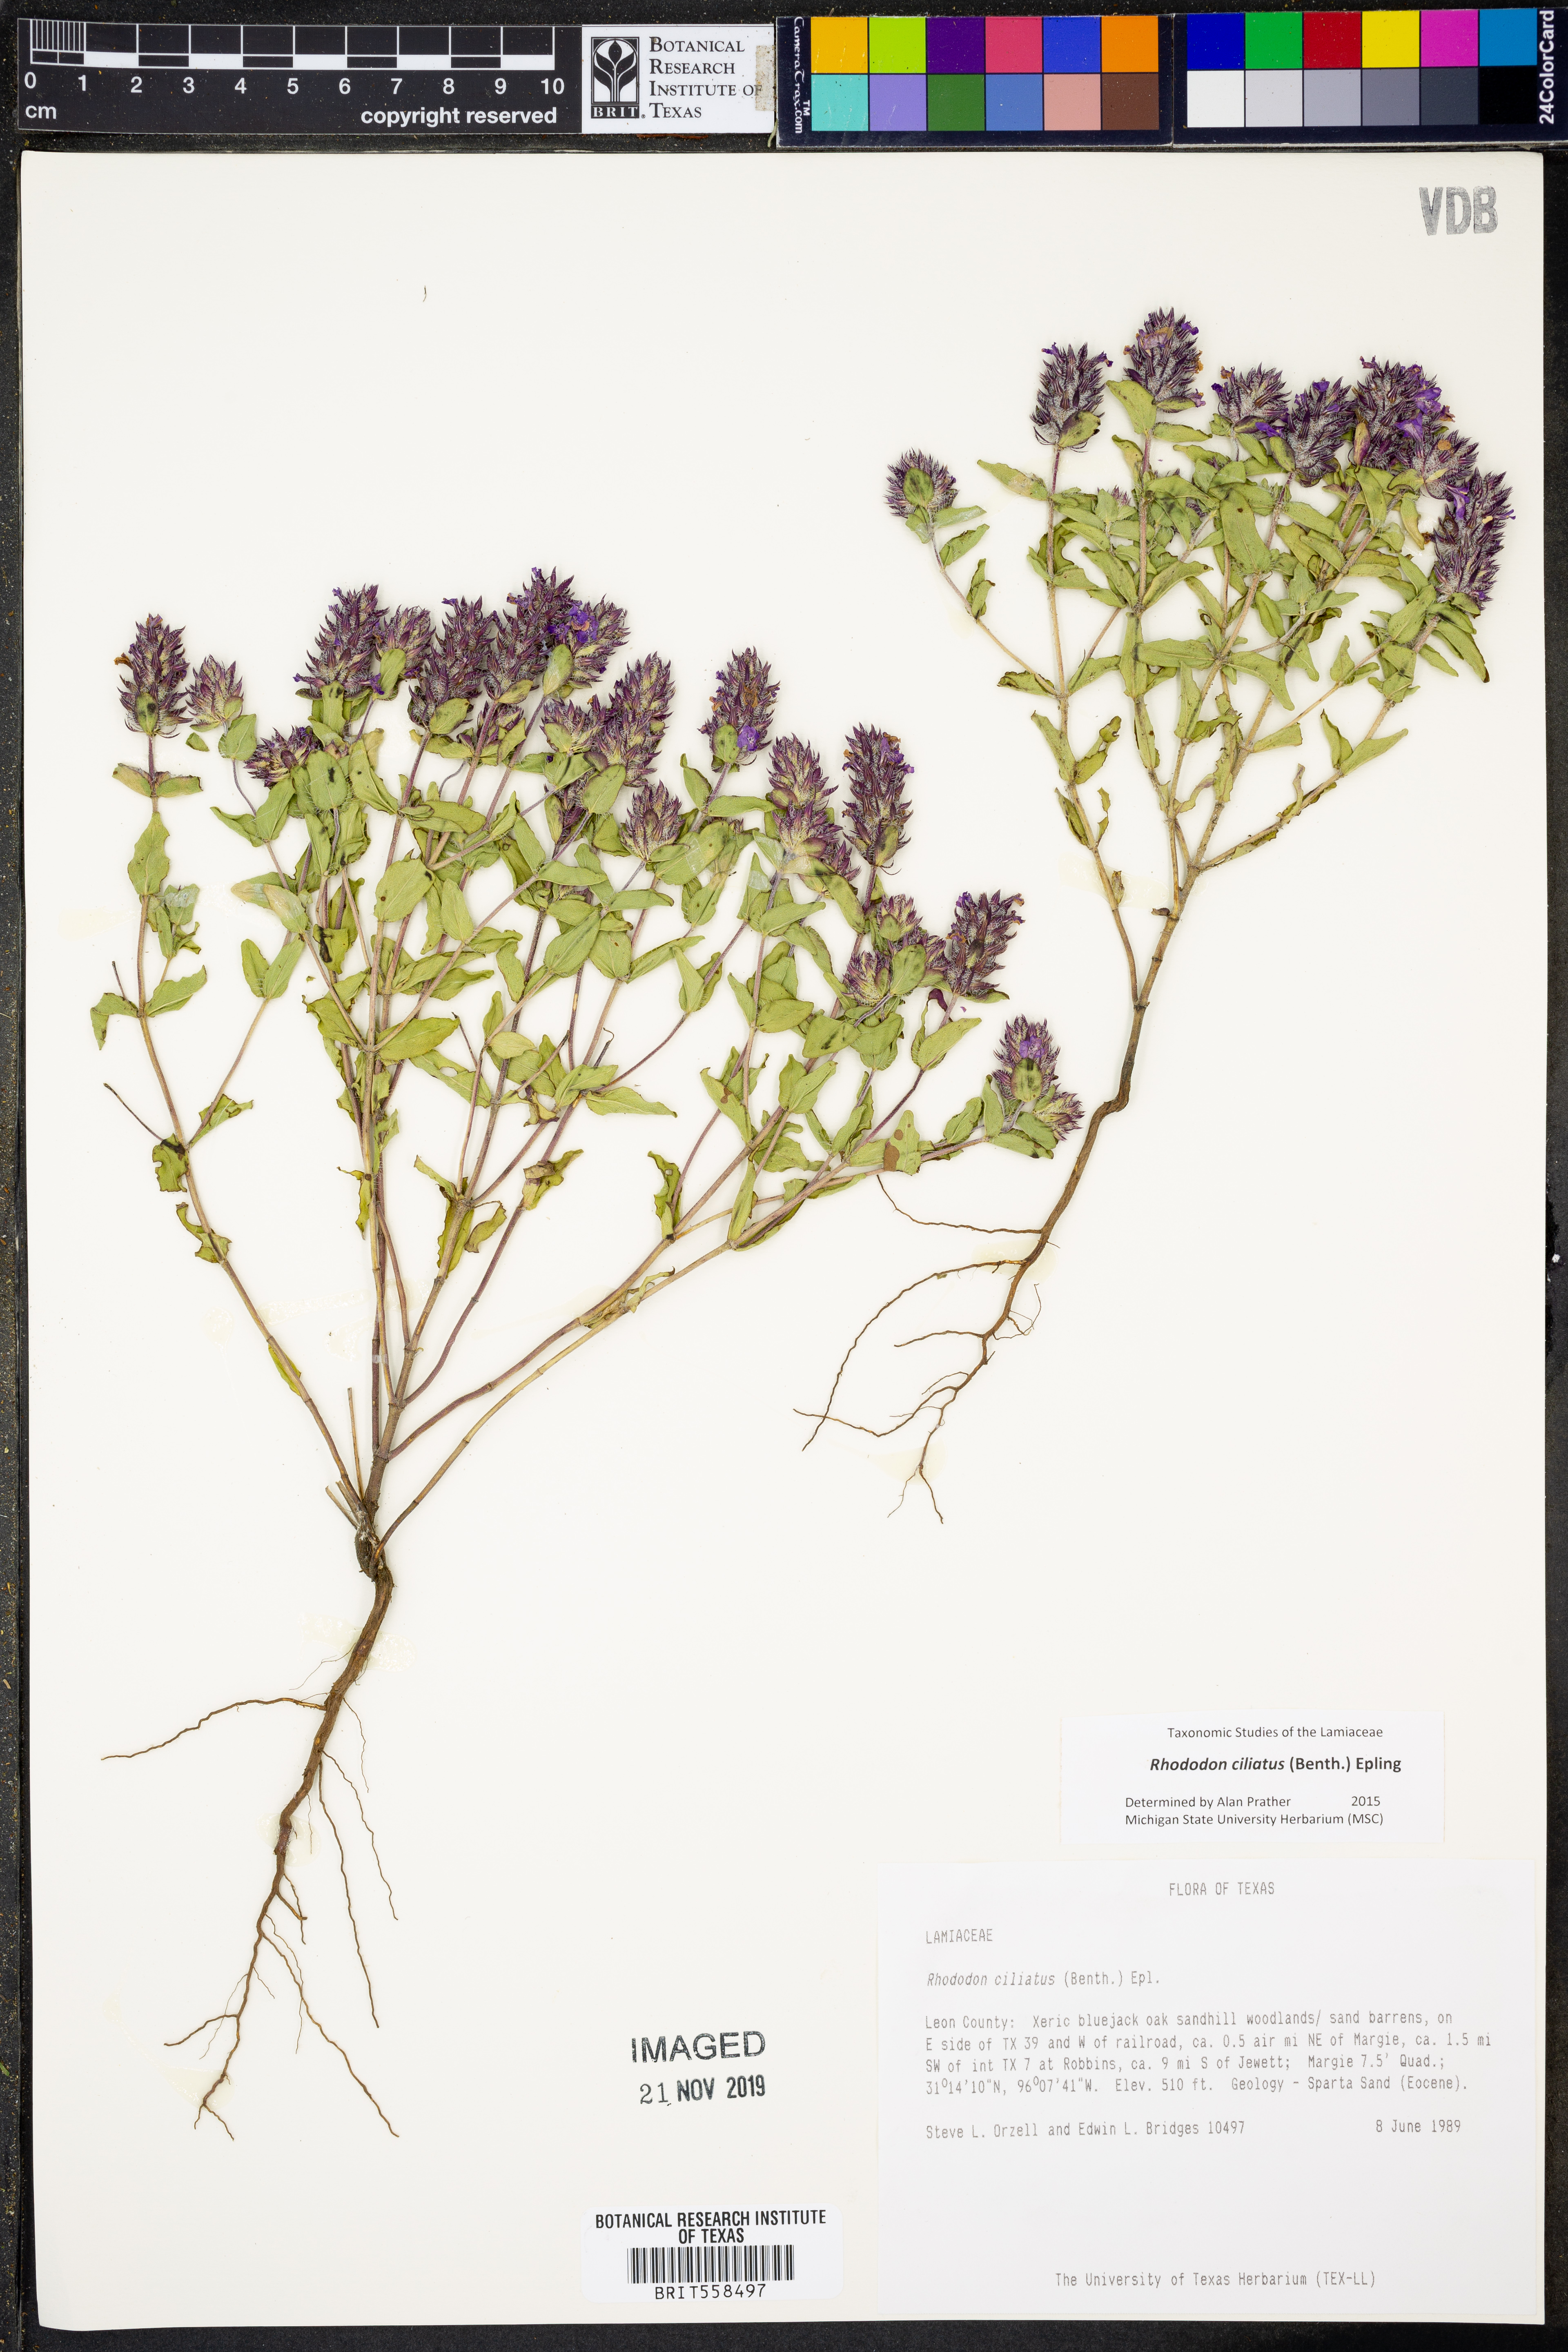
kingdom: Plantae
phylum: Tracheophyta
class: Magnoliopsida
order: Lamiales
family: Lamiaceae
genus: Rhododon
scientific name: Rhododon ciliatus
